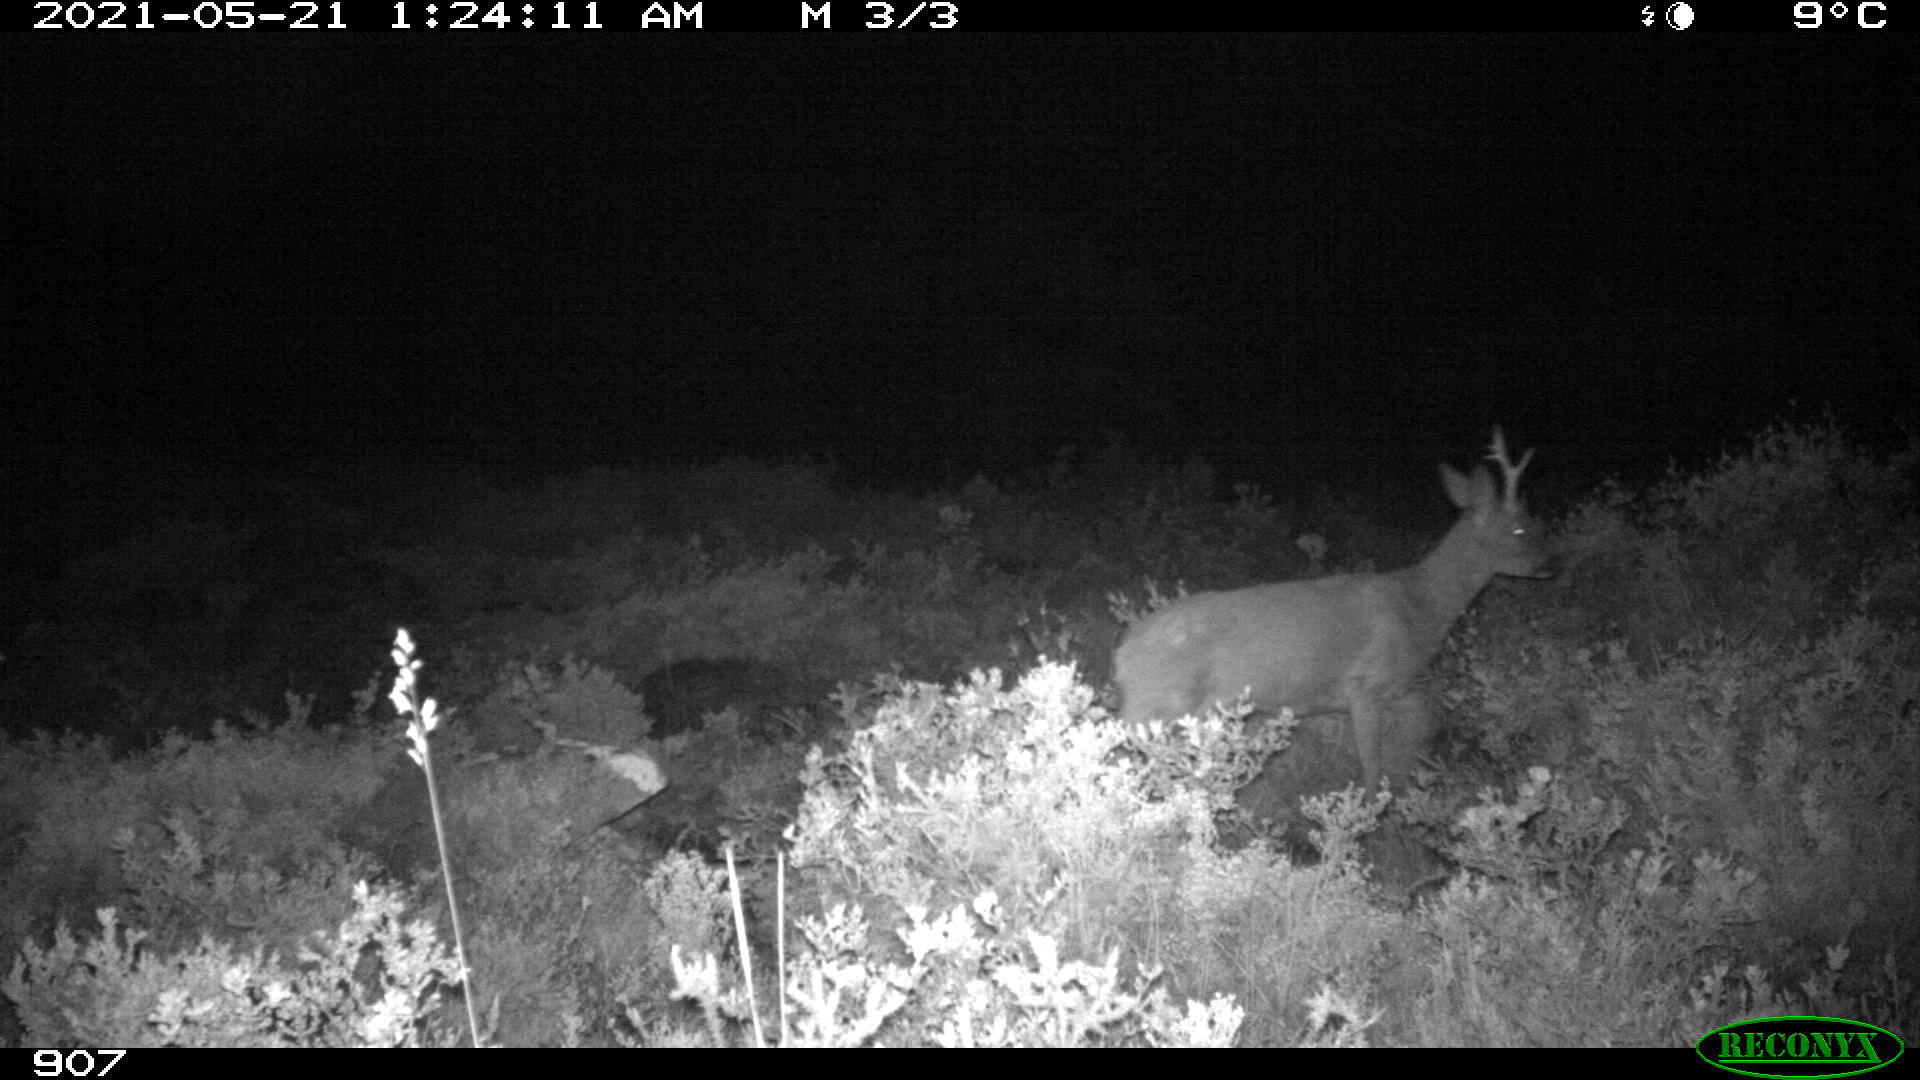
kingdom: Animalia
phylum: Chordata
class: Mammalia
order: Artiodactyla
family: Cervidae
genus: Capreolus
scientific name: Capreolus capreolus
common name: Western roe deer
